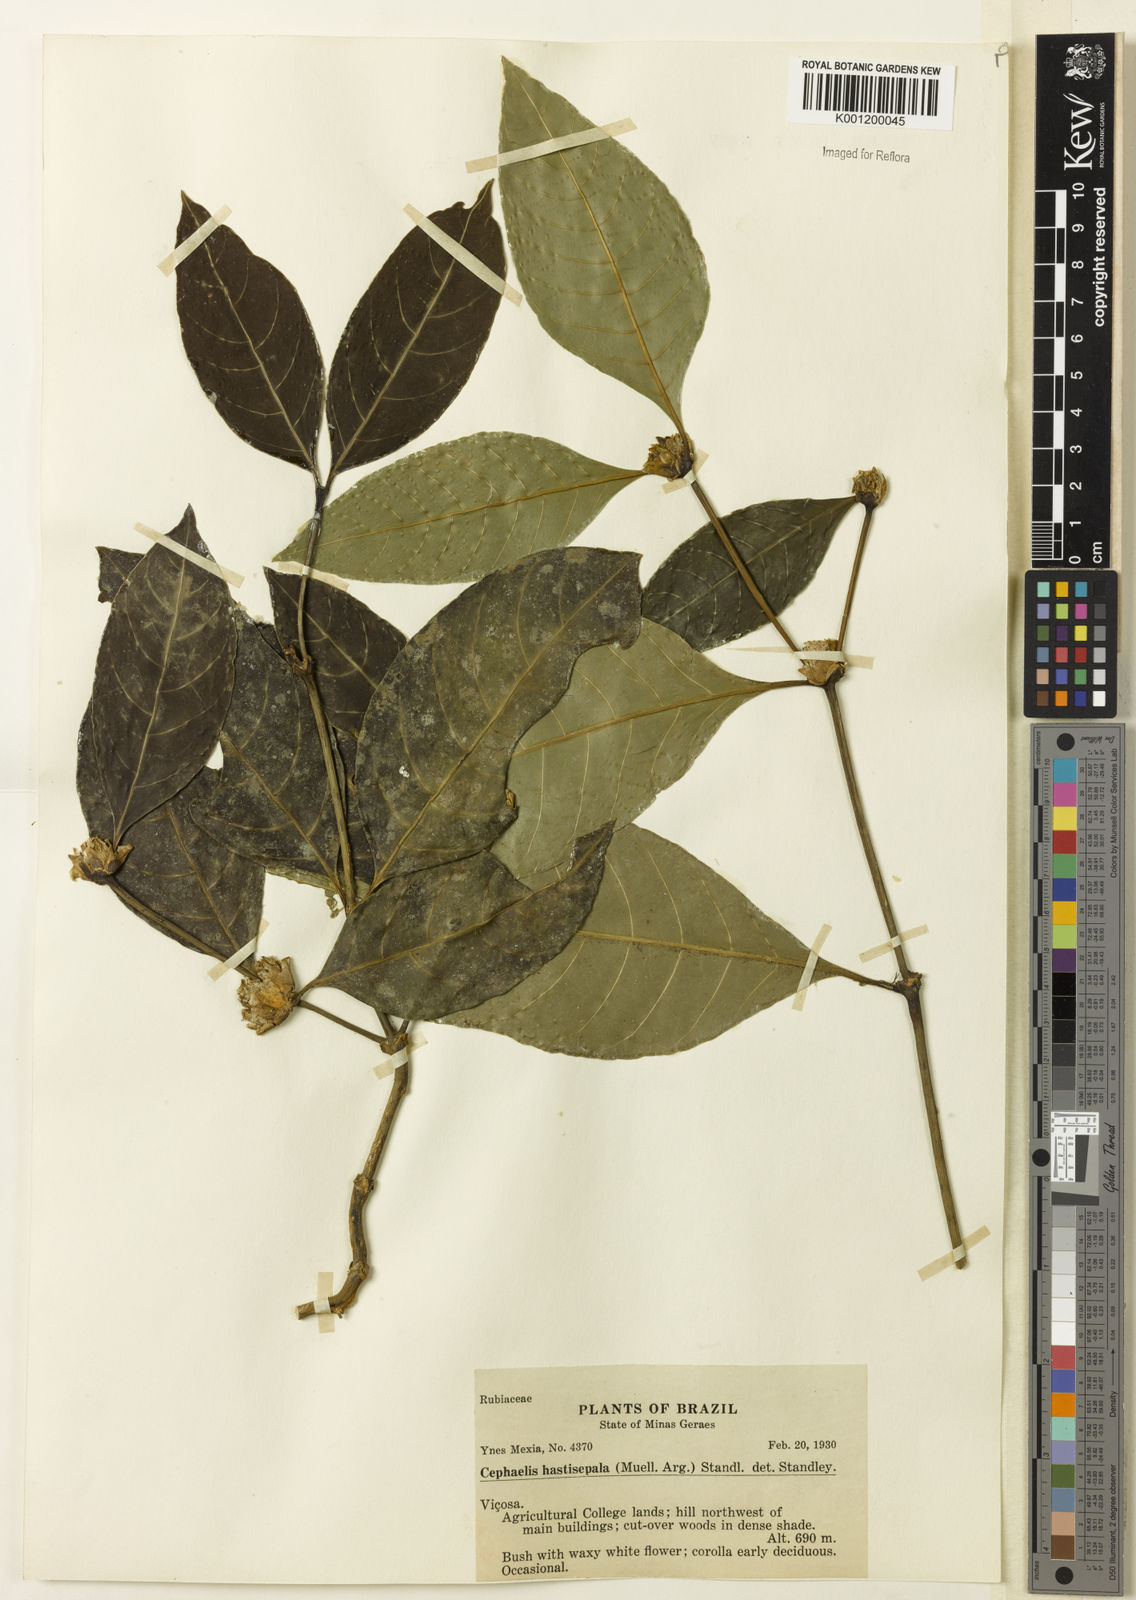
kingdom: Plantae
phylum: Tracheophyta
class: Magnoliopsida
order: Gentianales
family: Rubiaceae
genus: Psychotria
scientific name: Psychotria
